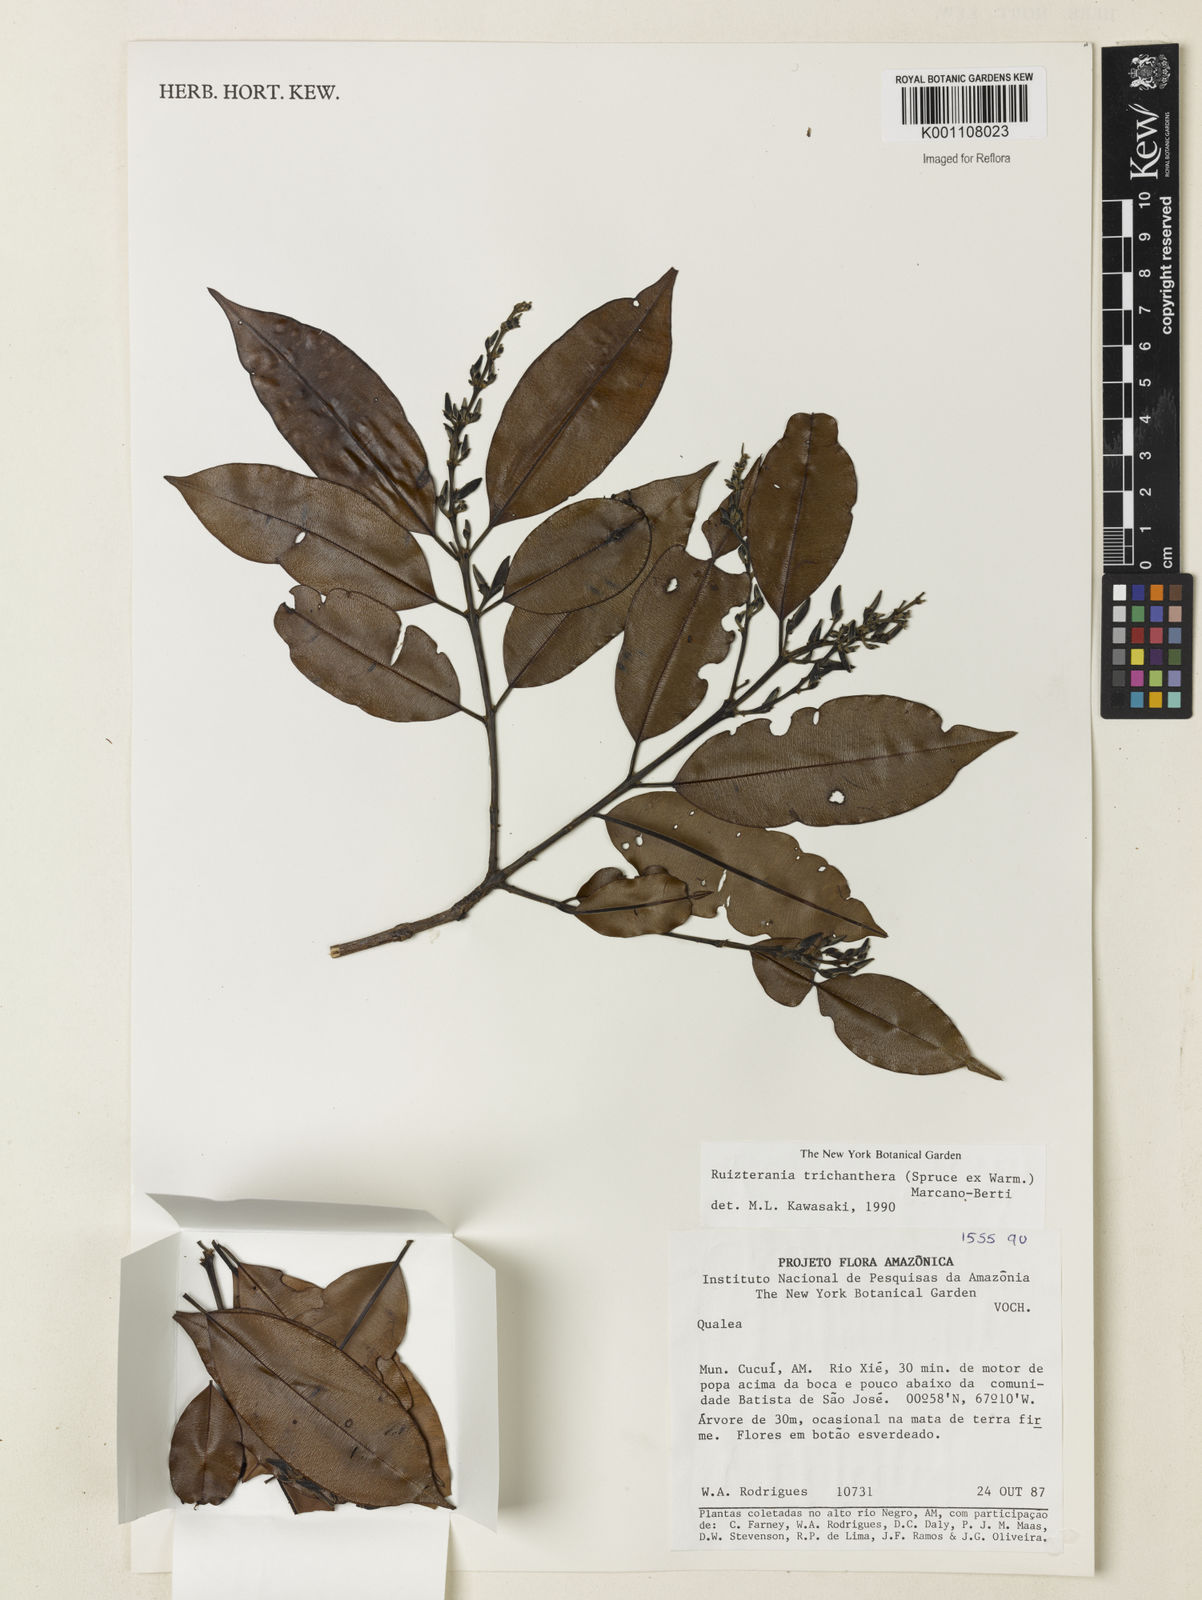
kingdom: Plantae
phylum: Tracheophyta
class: Magnoliopsida
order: Myrtales
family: Vochysiaceae
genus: Ruizterania
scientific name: Ruizterania trichanthera
